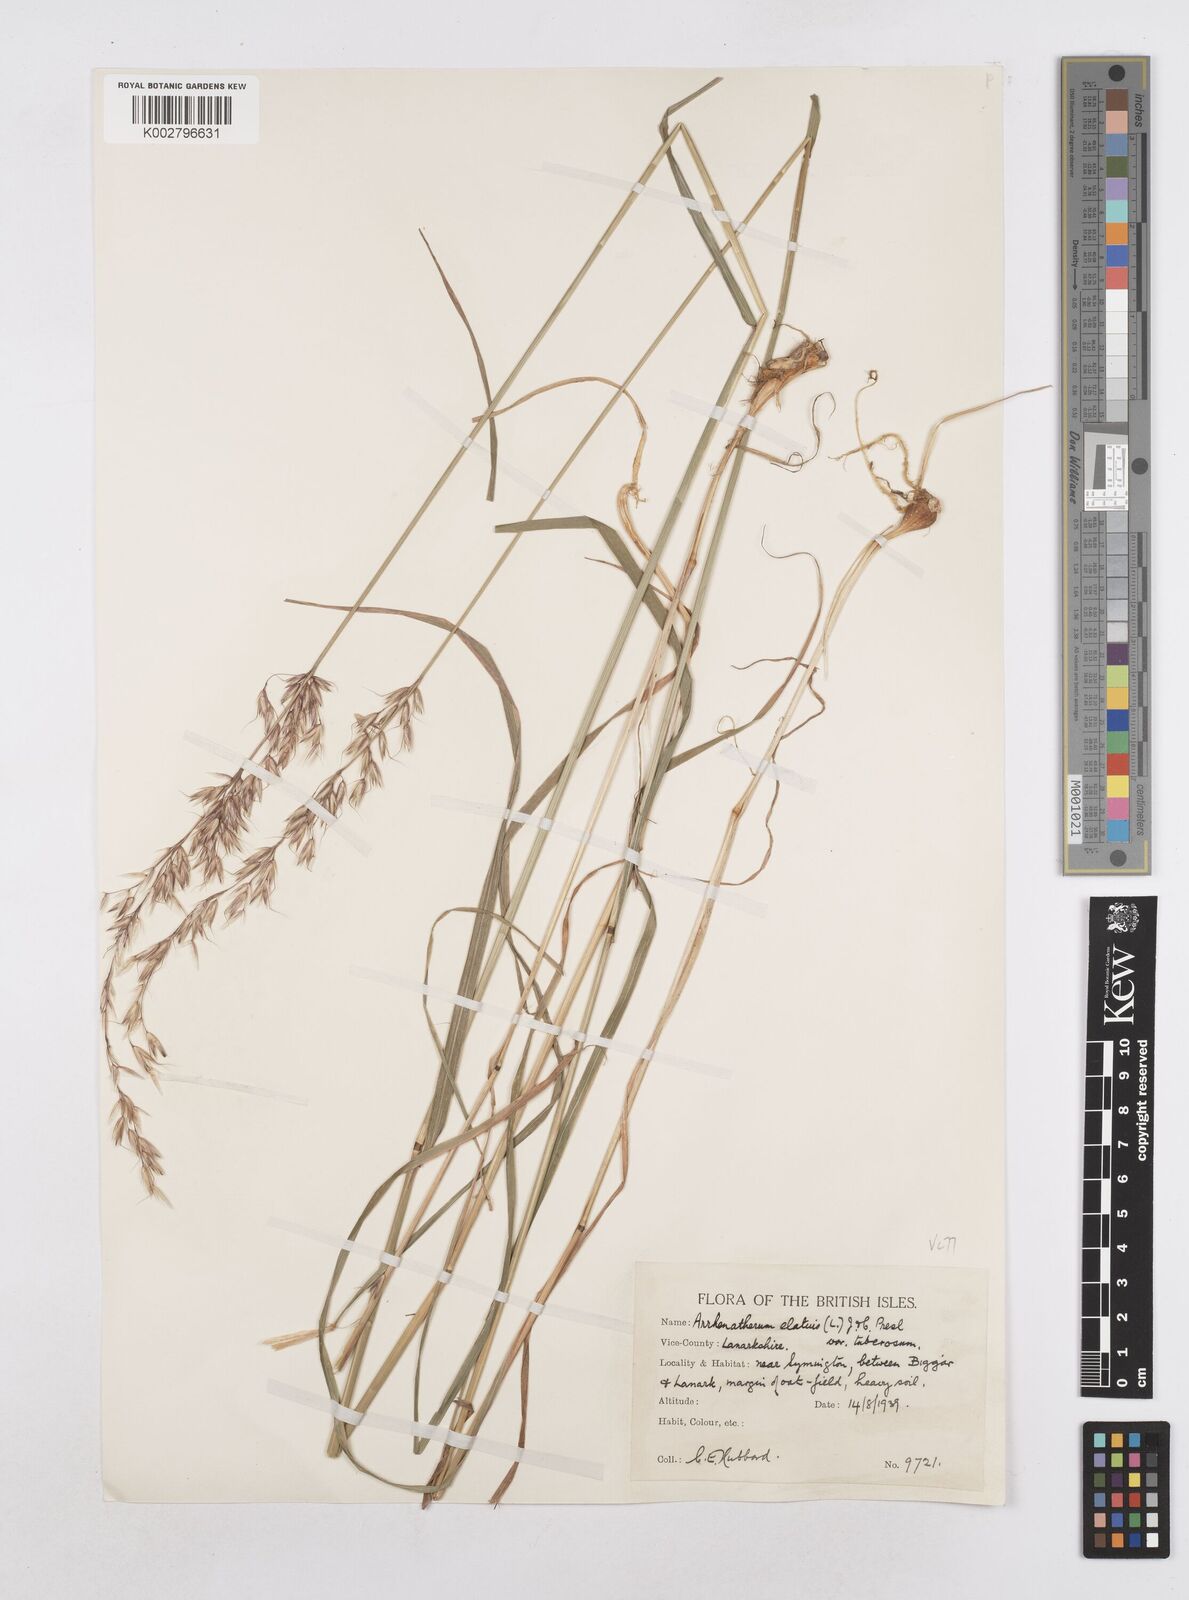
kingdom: Plantae
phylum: Tracheophyta
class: Liliopsida
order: Poales
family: Poaceae
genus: Arrhenatherum
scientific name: Arrhenatherum elatius
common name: Tall oatgrass
